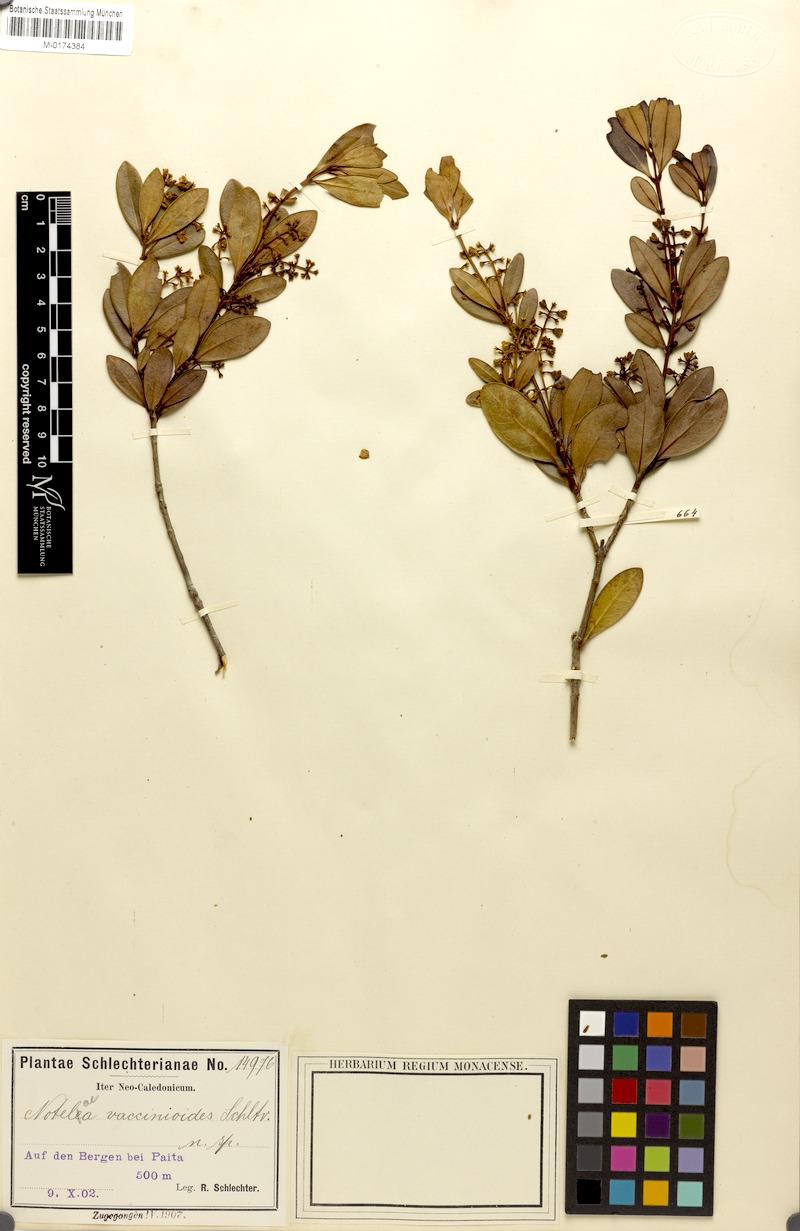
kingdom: Plantae
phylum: Tracheophyta
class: Magnoliopsida
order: Lamiales
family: Oleaceae
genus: Osmanthus
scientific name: Osmanthus austrocaledonicus
